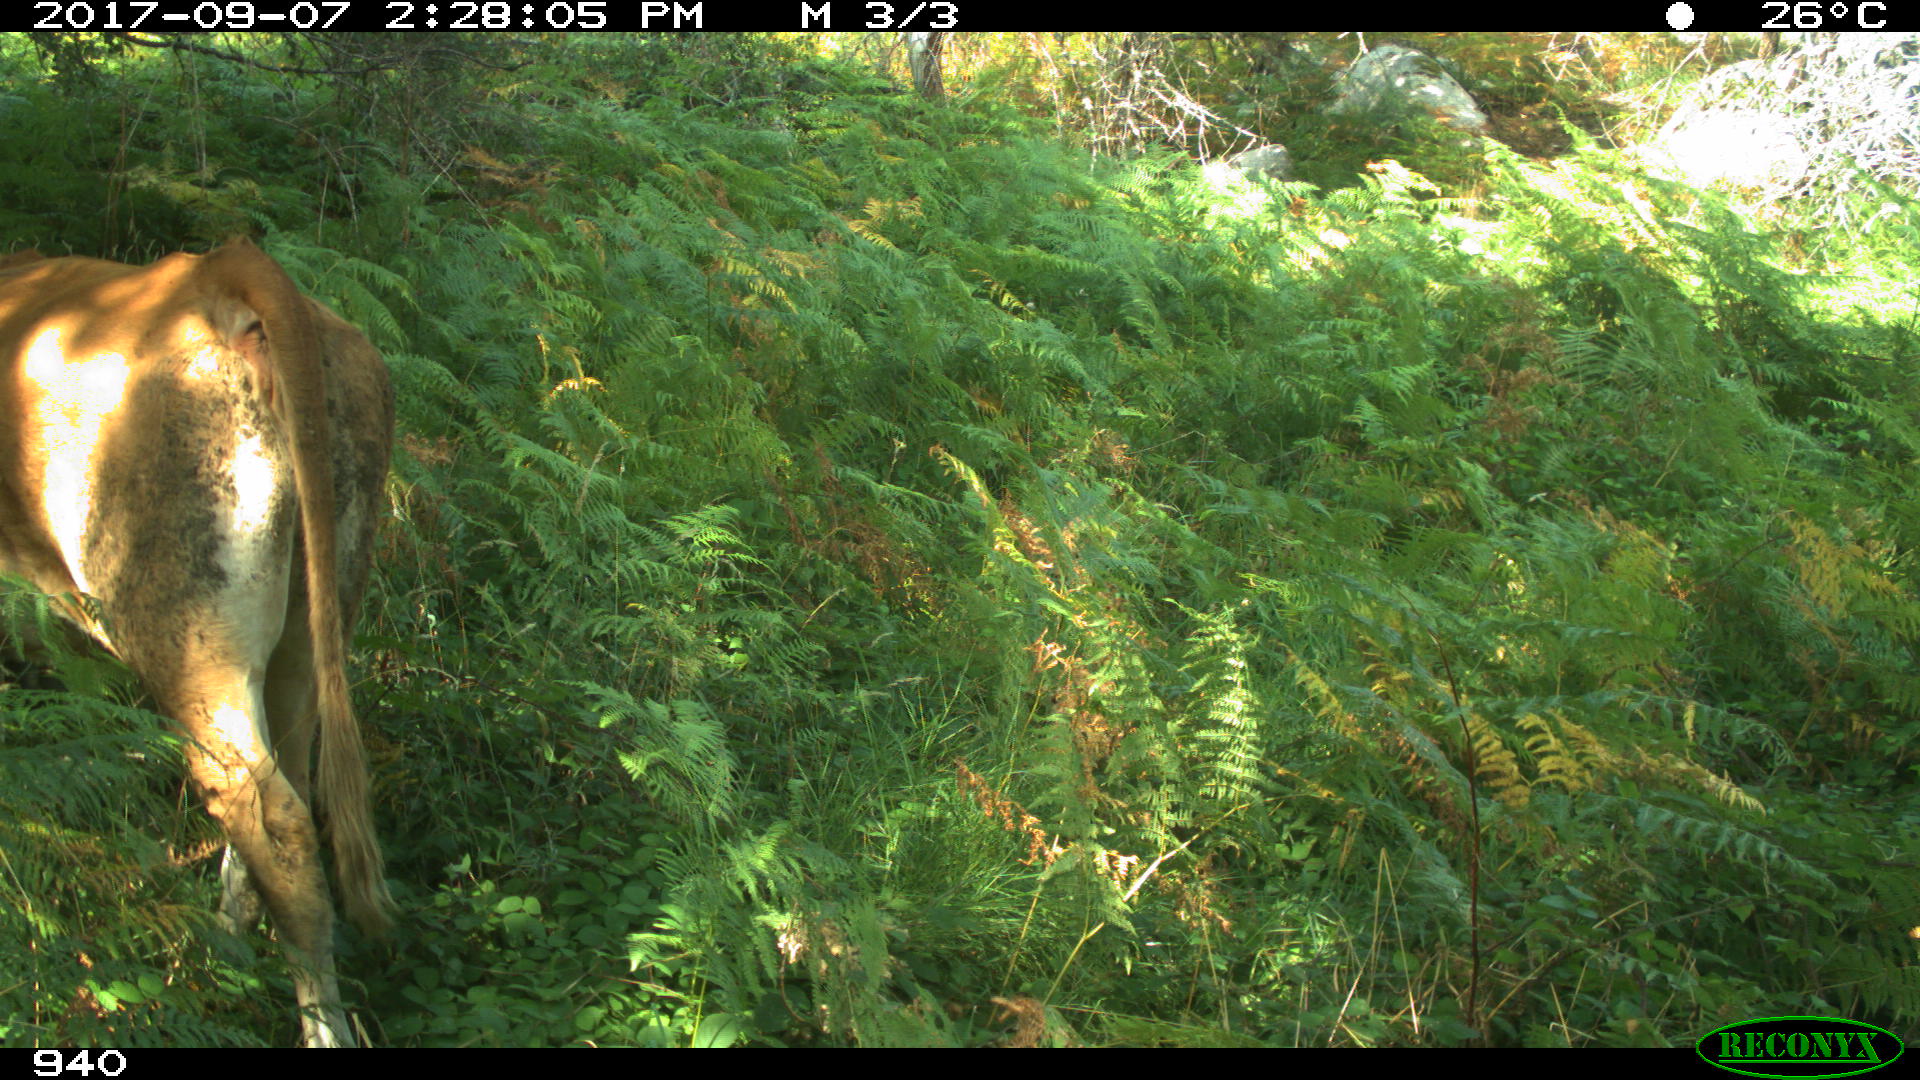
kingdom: Animalia
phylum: Chordata
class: Mammalia
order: Artiodactyla
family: Bovidae
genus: Bos
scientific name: Bos taurus
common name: Domesticated cattle
